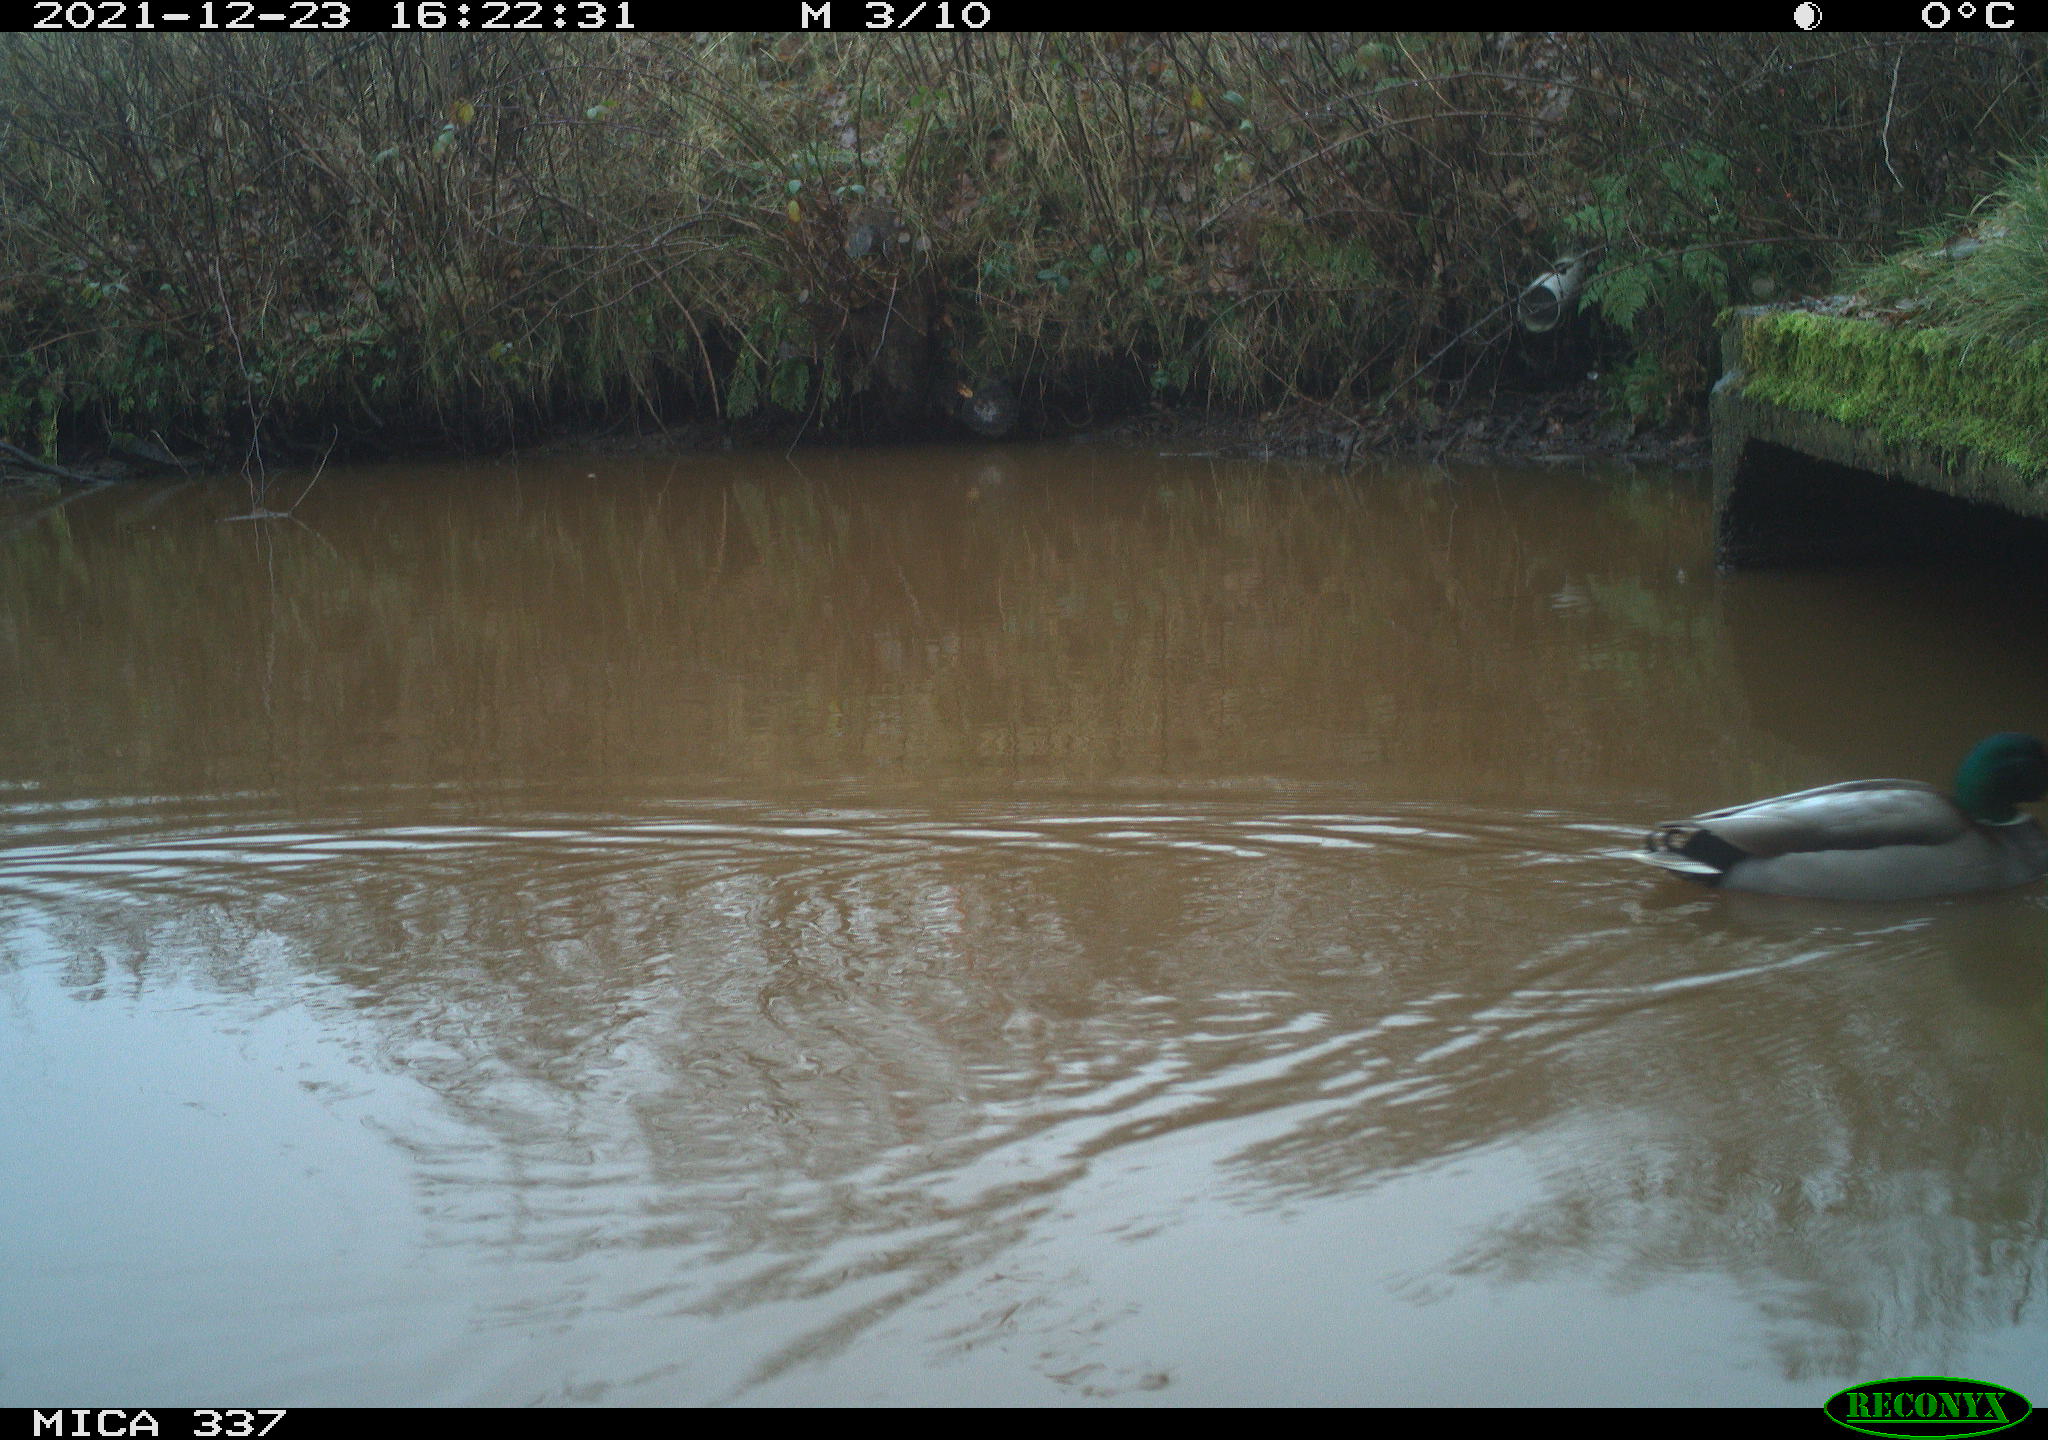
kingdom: Animalia
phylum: Chordata
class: Aves
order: Anseriformes
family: Anatidae
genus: Anas
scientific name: Anas platyrhynchos
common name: Mallard
